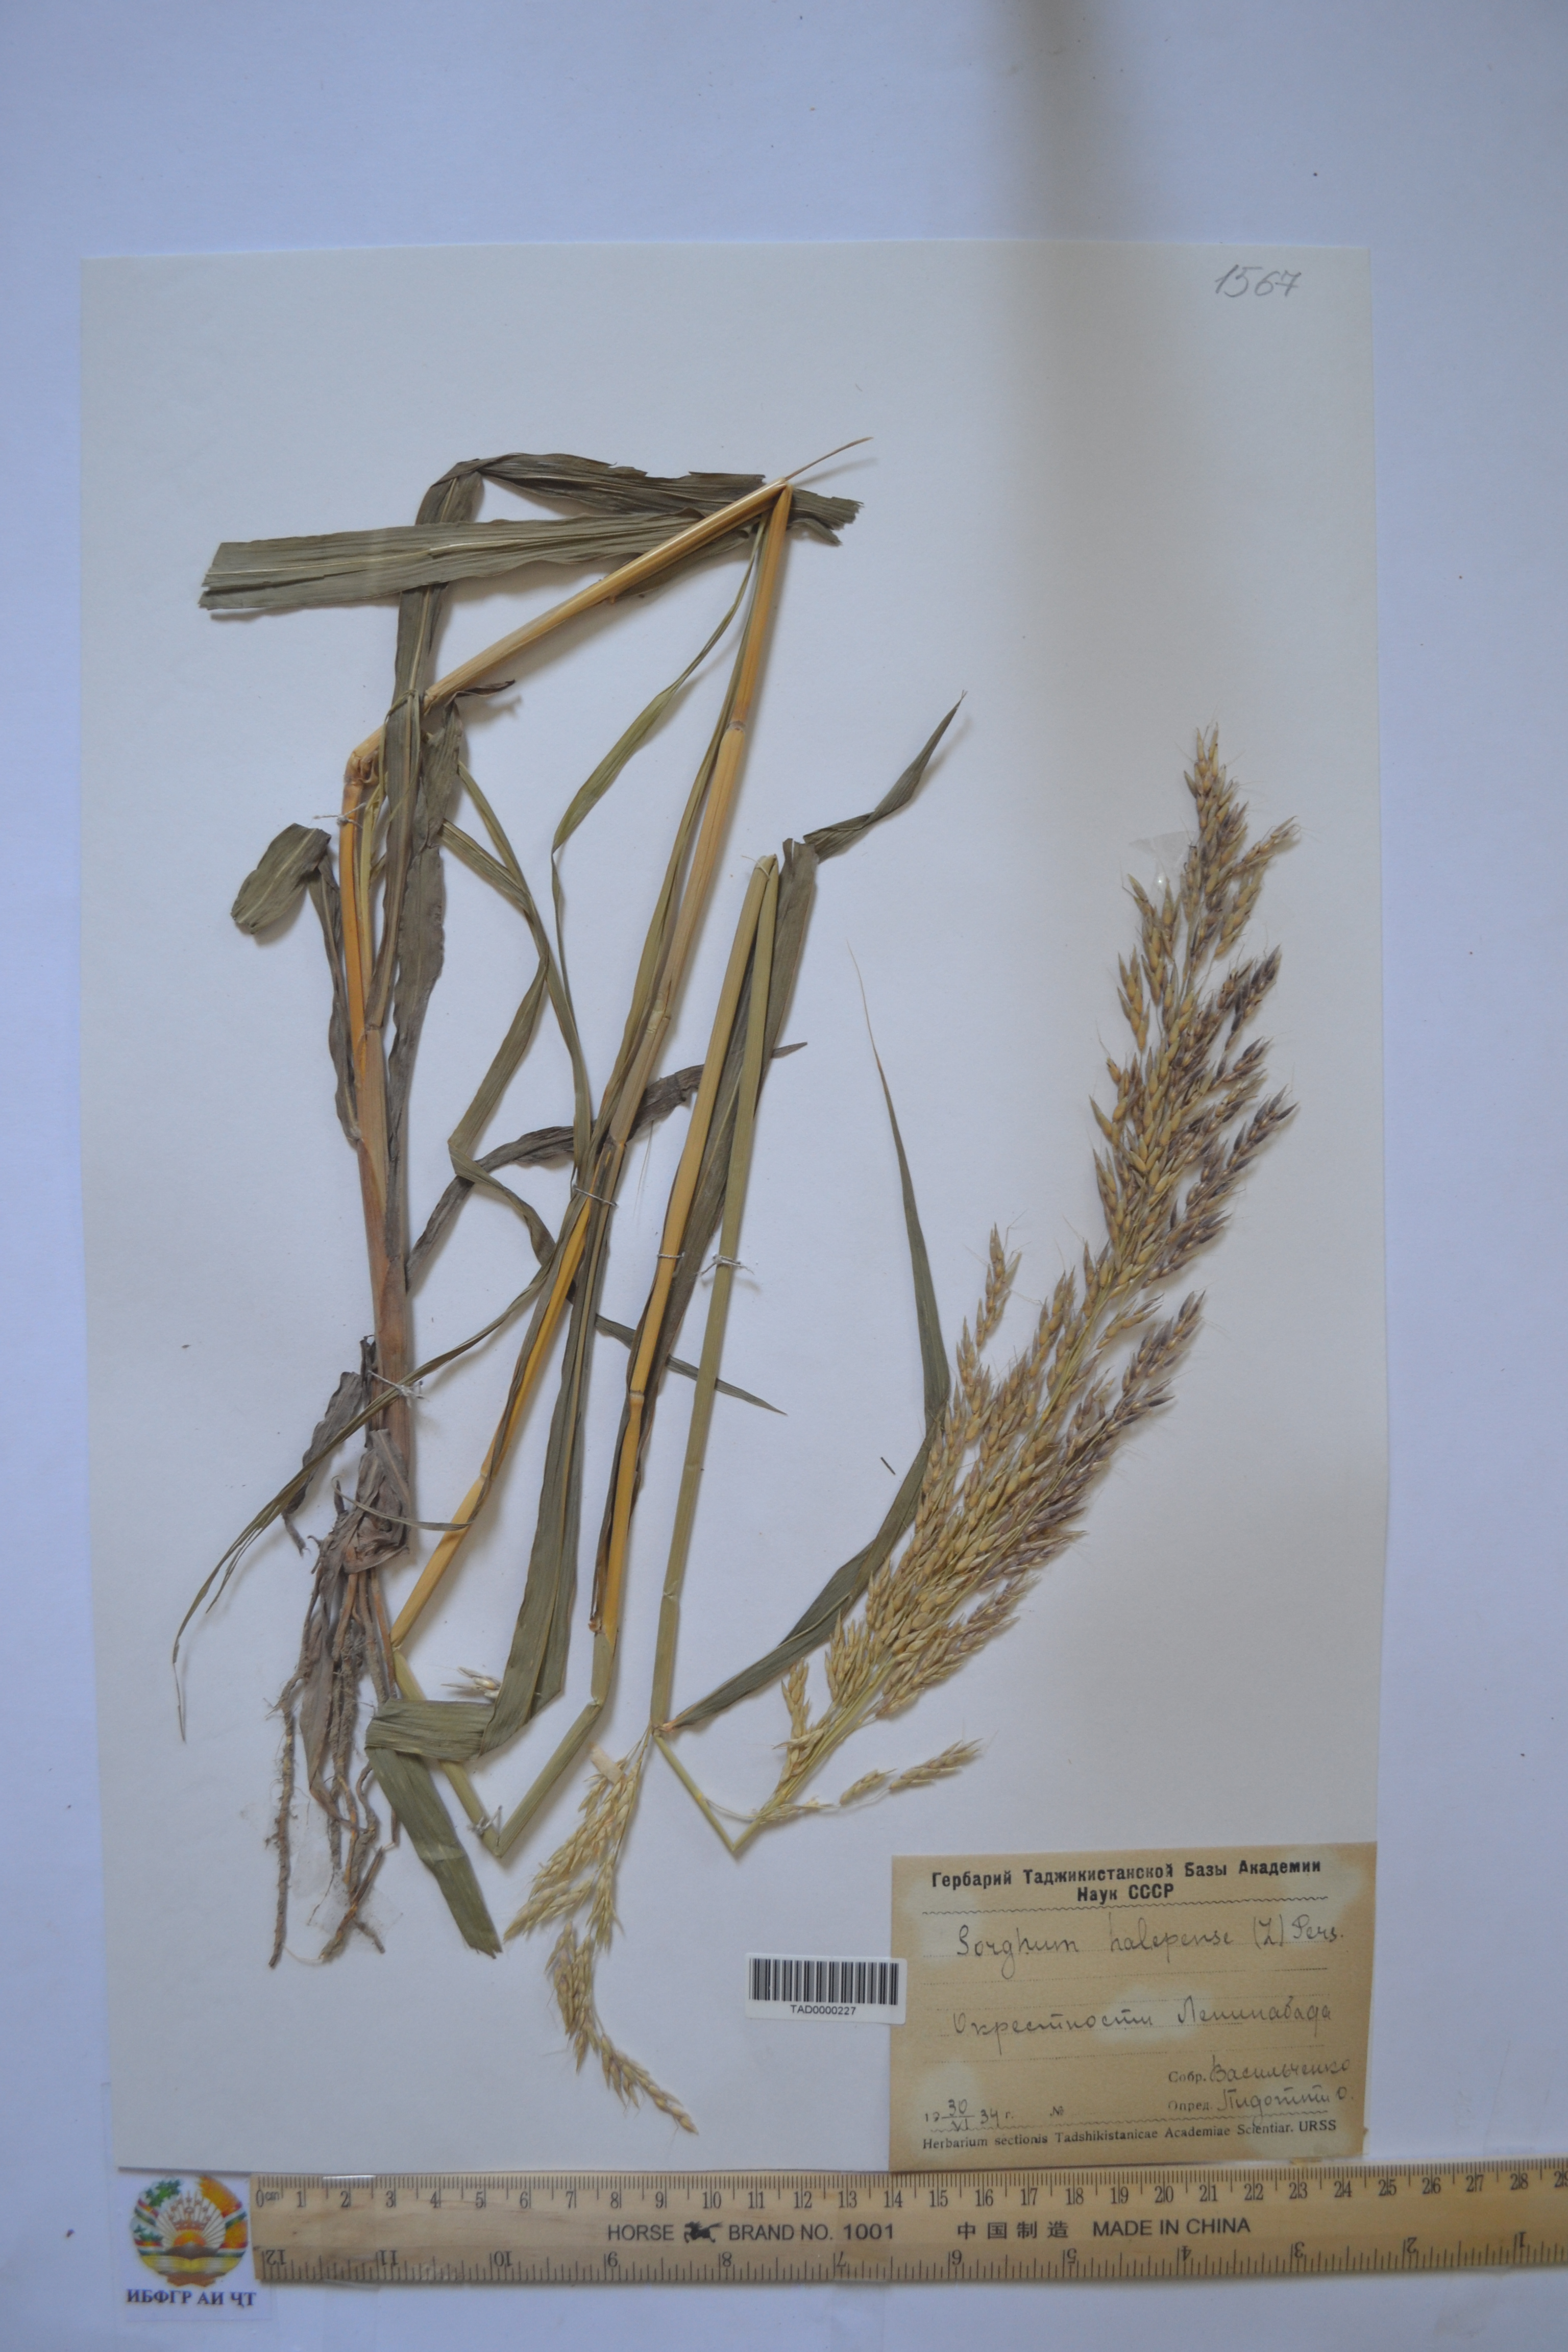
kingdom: Plantae
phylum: Tracheophyta
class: Liliopsida
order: Poales
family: Poaceae
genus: Sorghum
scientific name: Sorghum halepense
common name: Johnson-grass
